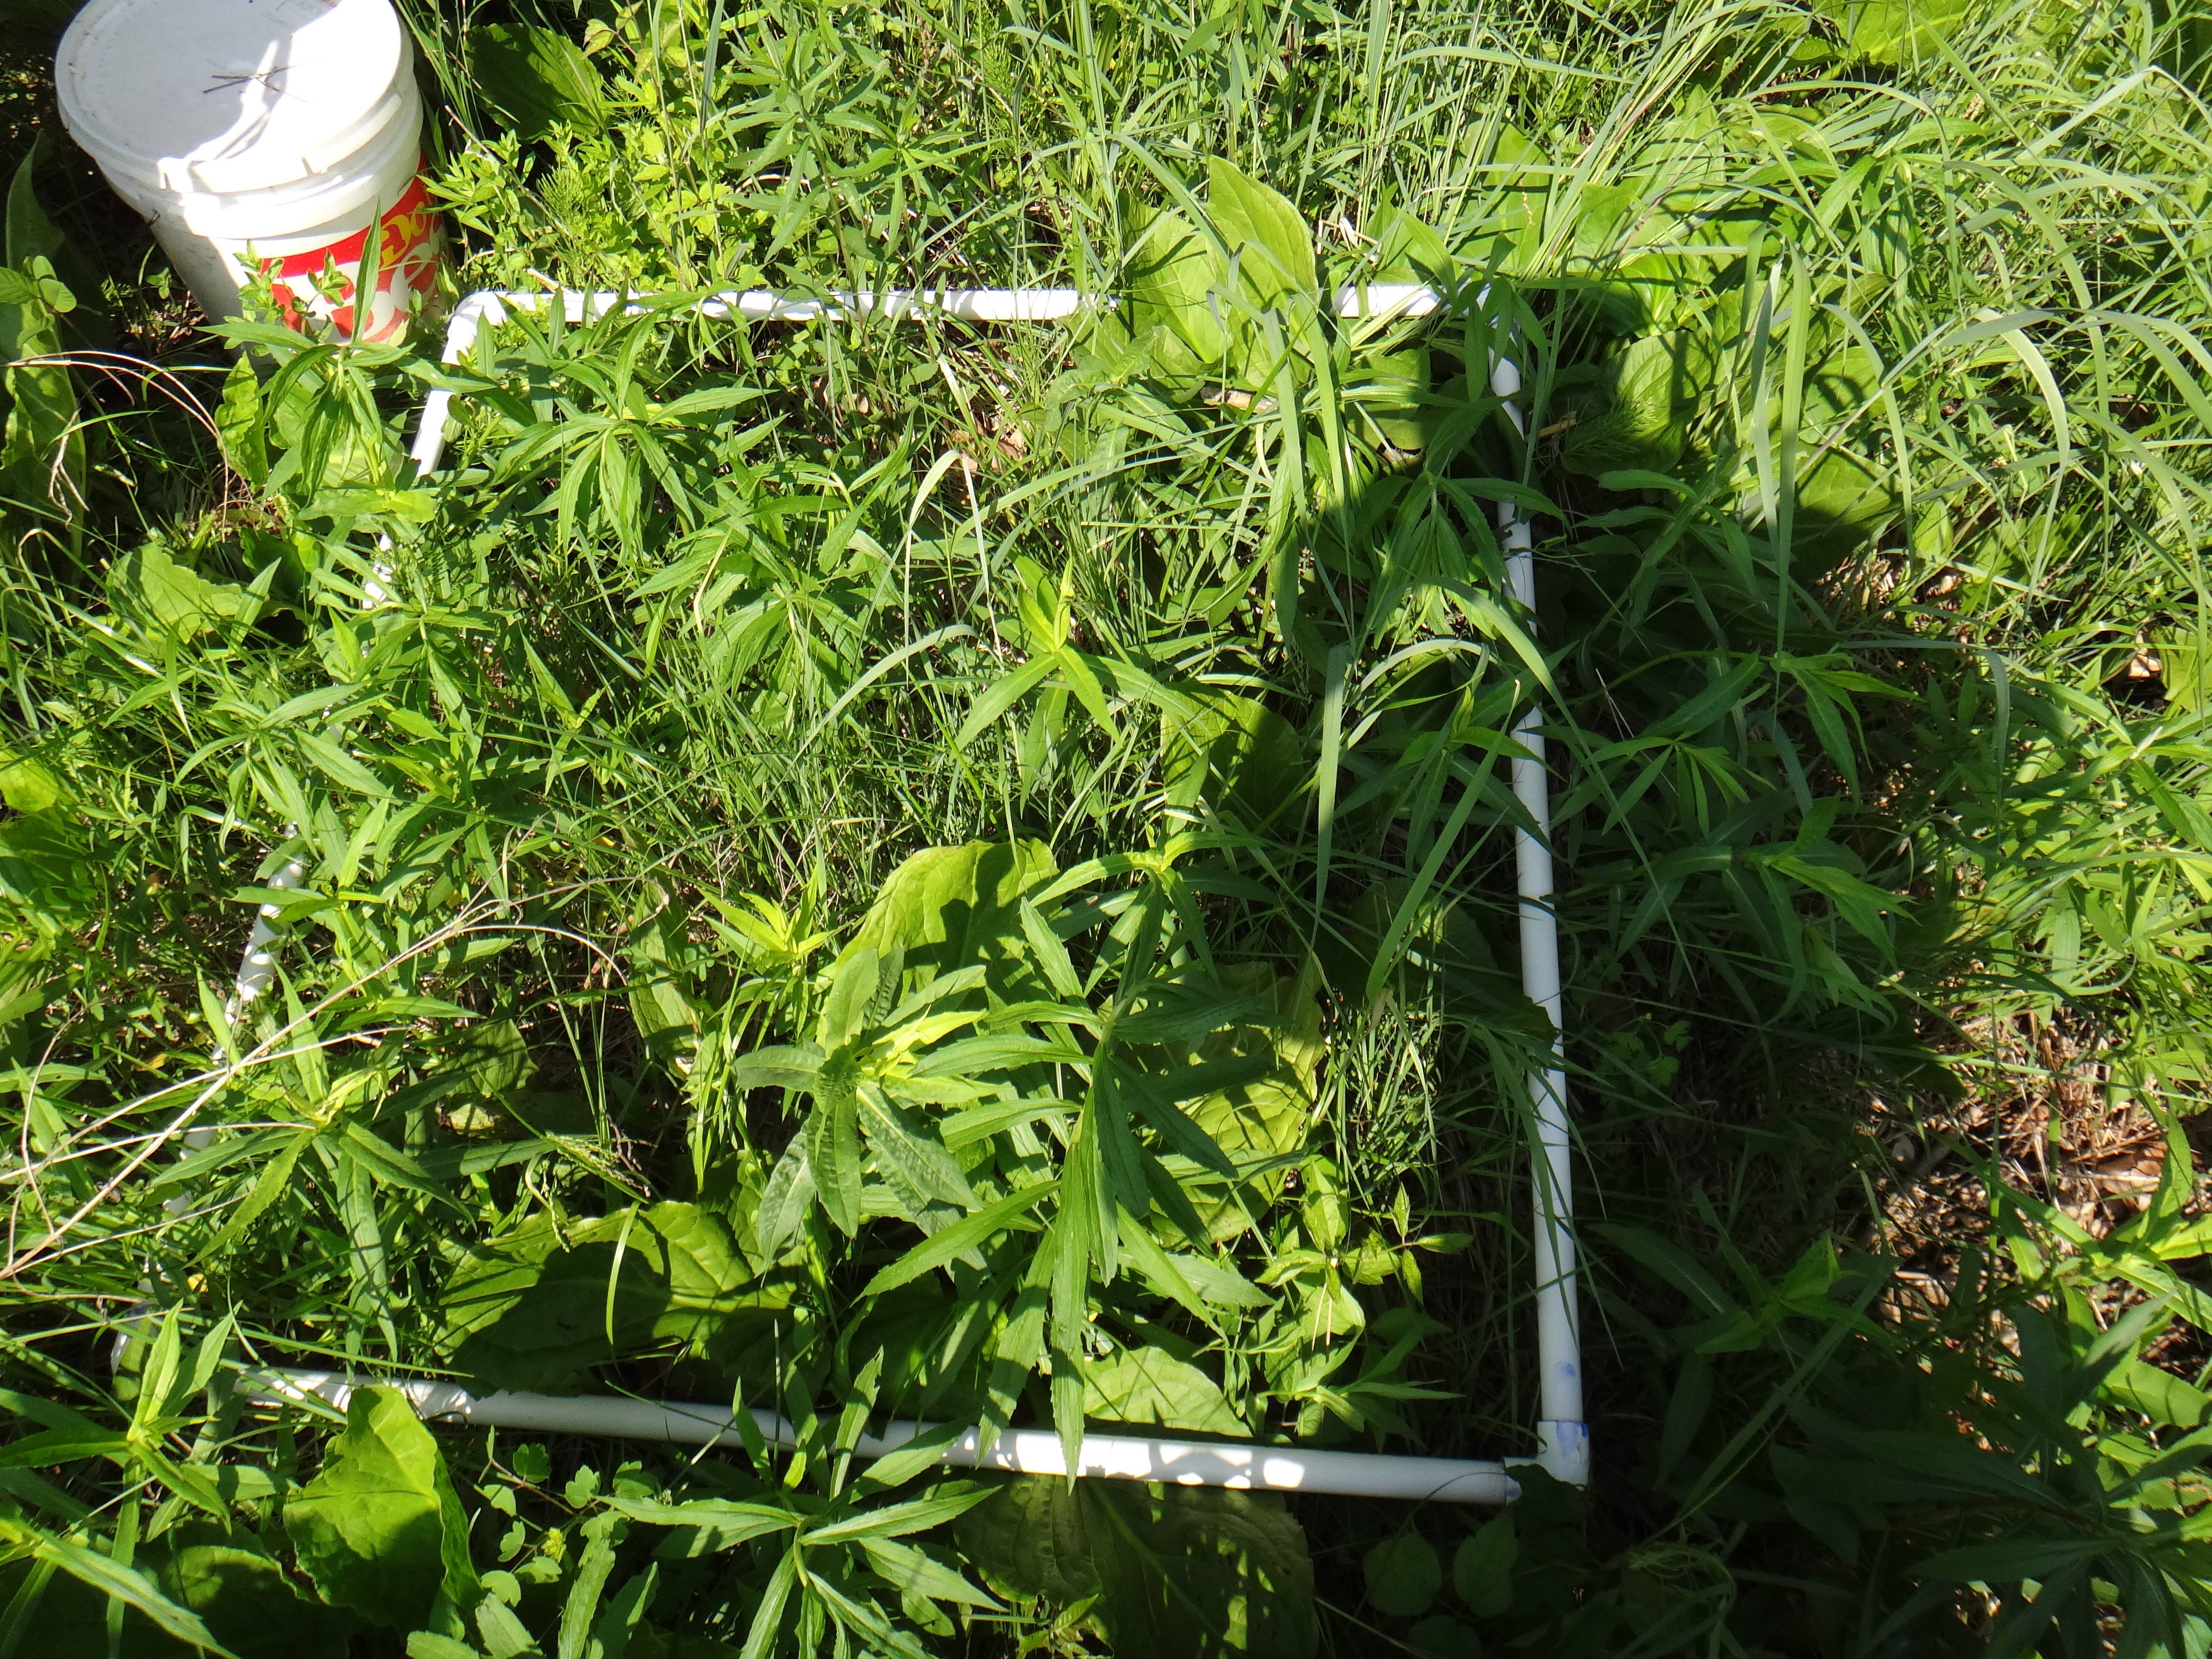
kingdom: Plantae
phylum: Tracheophyta
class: Liliopsida
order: Poales
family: Poaceae
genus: Poa
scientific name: Poa pratensis
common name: Kentucky bluegrass
